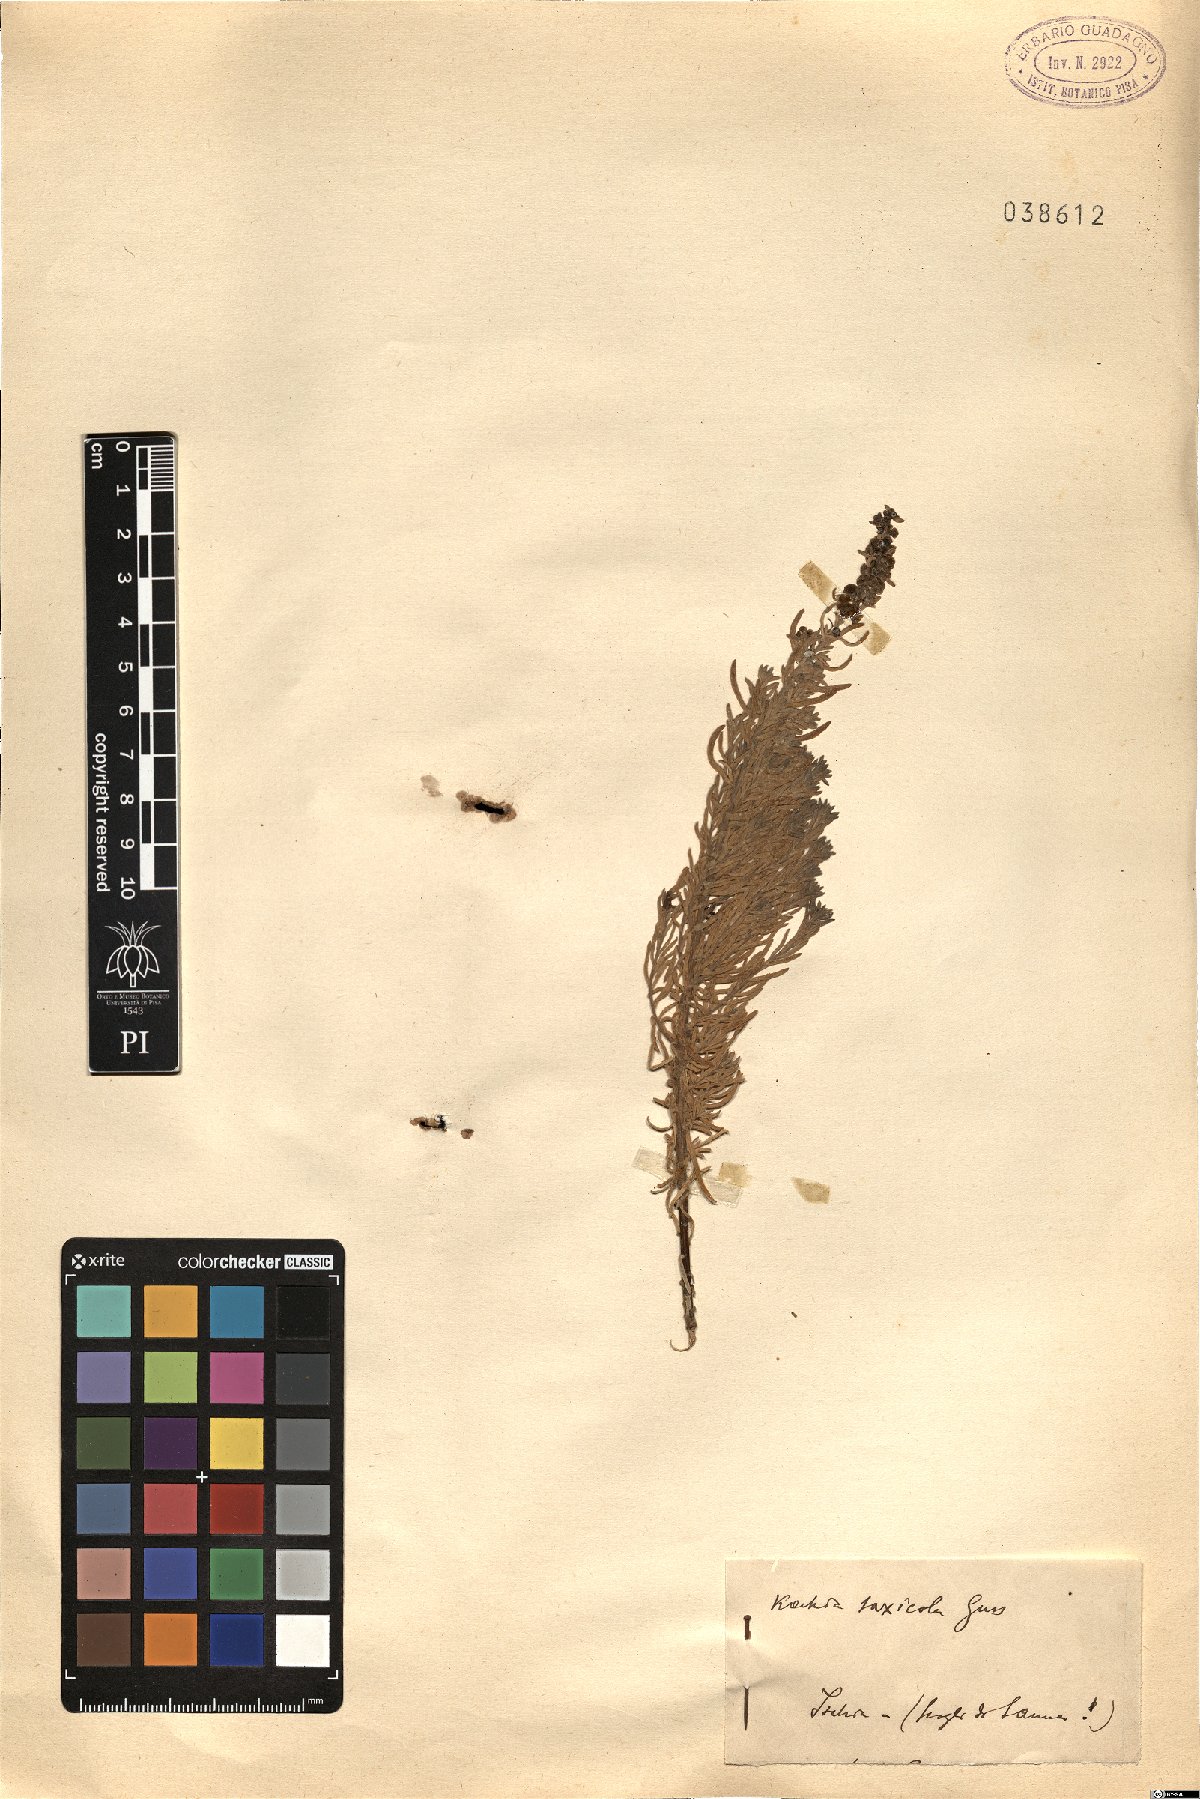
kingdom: Plantae
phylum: Tracheophyta
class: Magnoliopsida
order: Caryophyllales
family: Amaranthaceae
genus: Eokochia
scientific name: Eokochia saxicola
